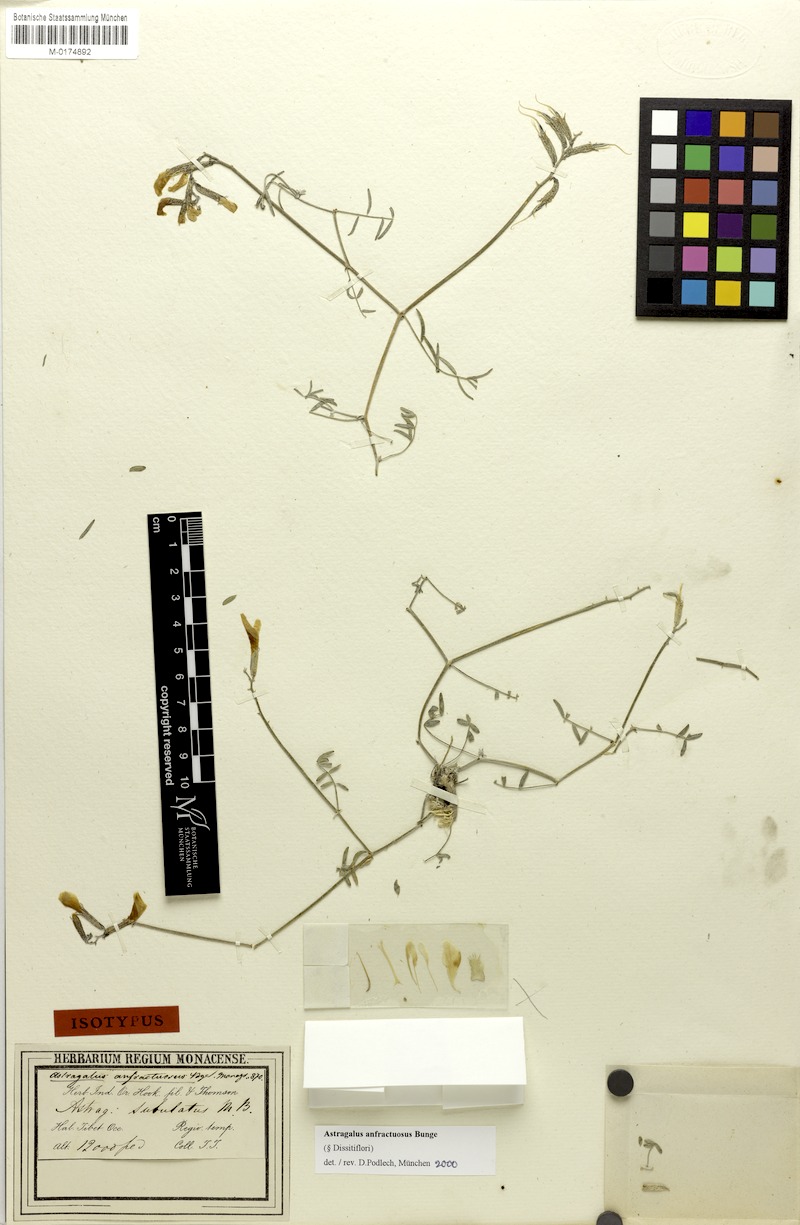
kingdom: Plantae
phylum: Tracheophyta
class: Magnoliopsida
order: Fabales
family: Fabaceae
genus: Astragalus
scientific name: Astragalus anfractuosus
